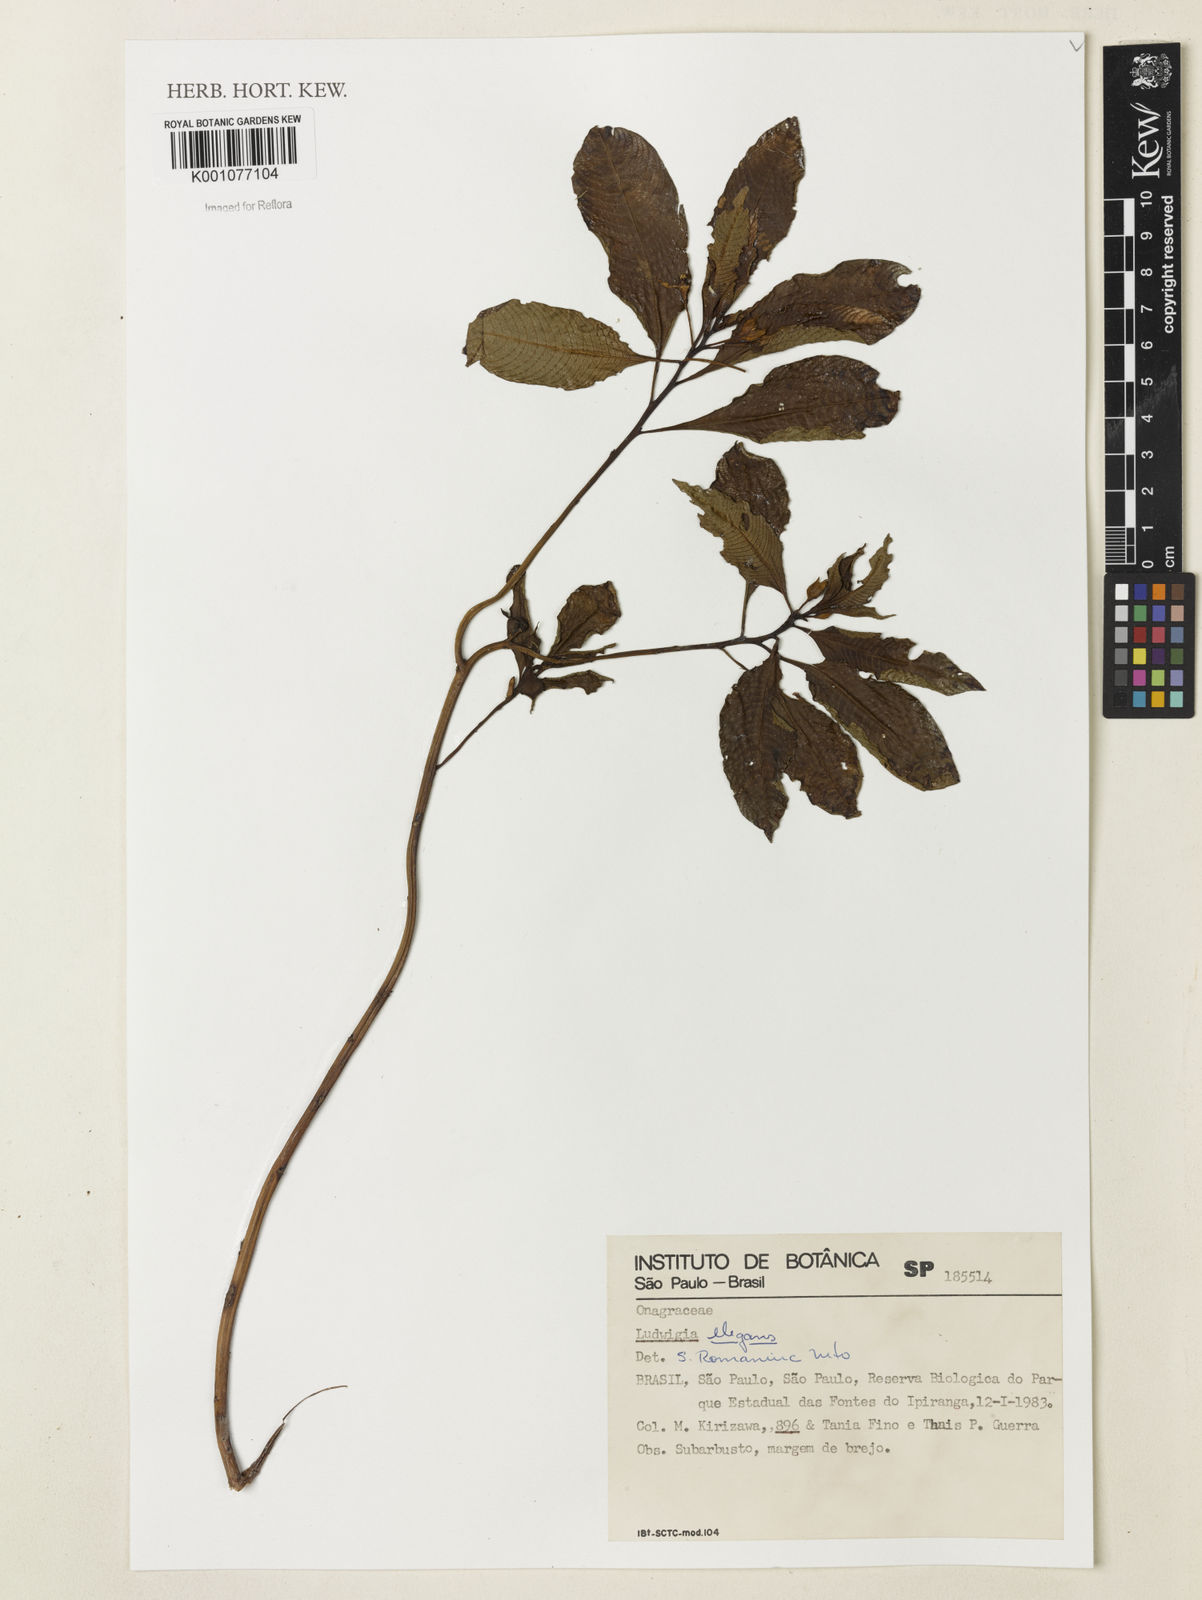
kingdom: Plantae
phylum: Tracheophyta
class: Magnoliopsida
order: Myrtales
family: Onagraceae
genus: Ludwigia
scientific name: Ludwigia elegans
